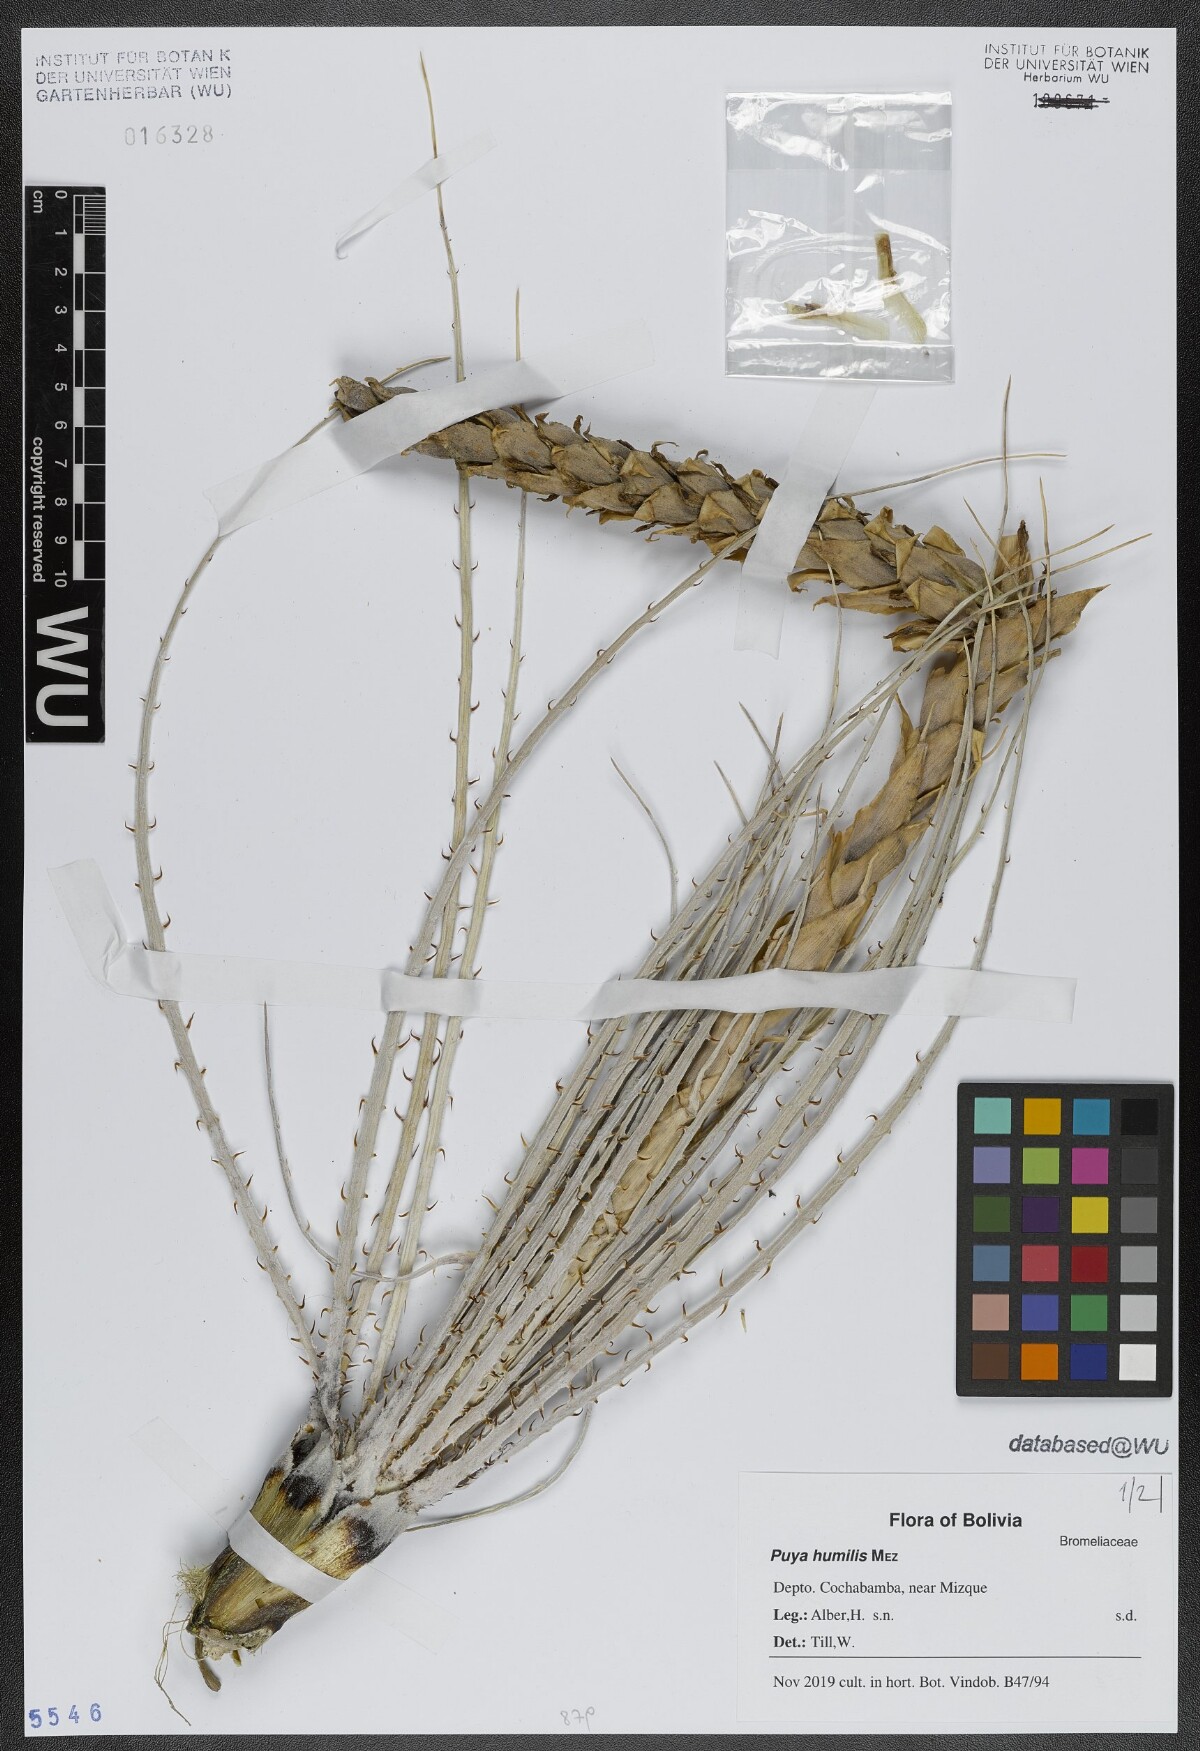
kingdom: Plantae
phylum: Tracheophyta
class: Liliopsida
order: Poales
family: Bromeliaceae
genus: Puya
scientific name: Puya humilis
